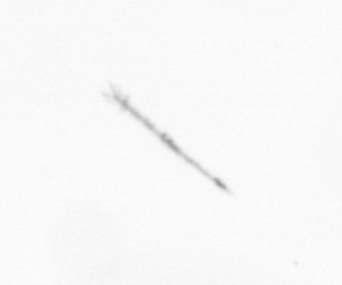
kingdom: Chromista
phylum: Ochrophyta
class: Bacillariophyceae
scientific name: Bacillariophyceae
